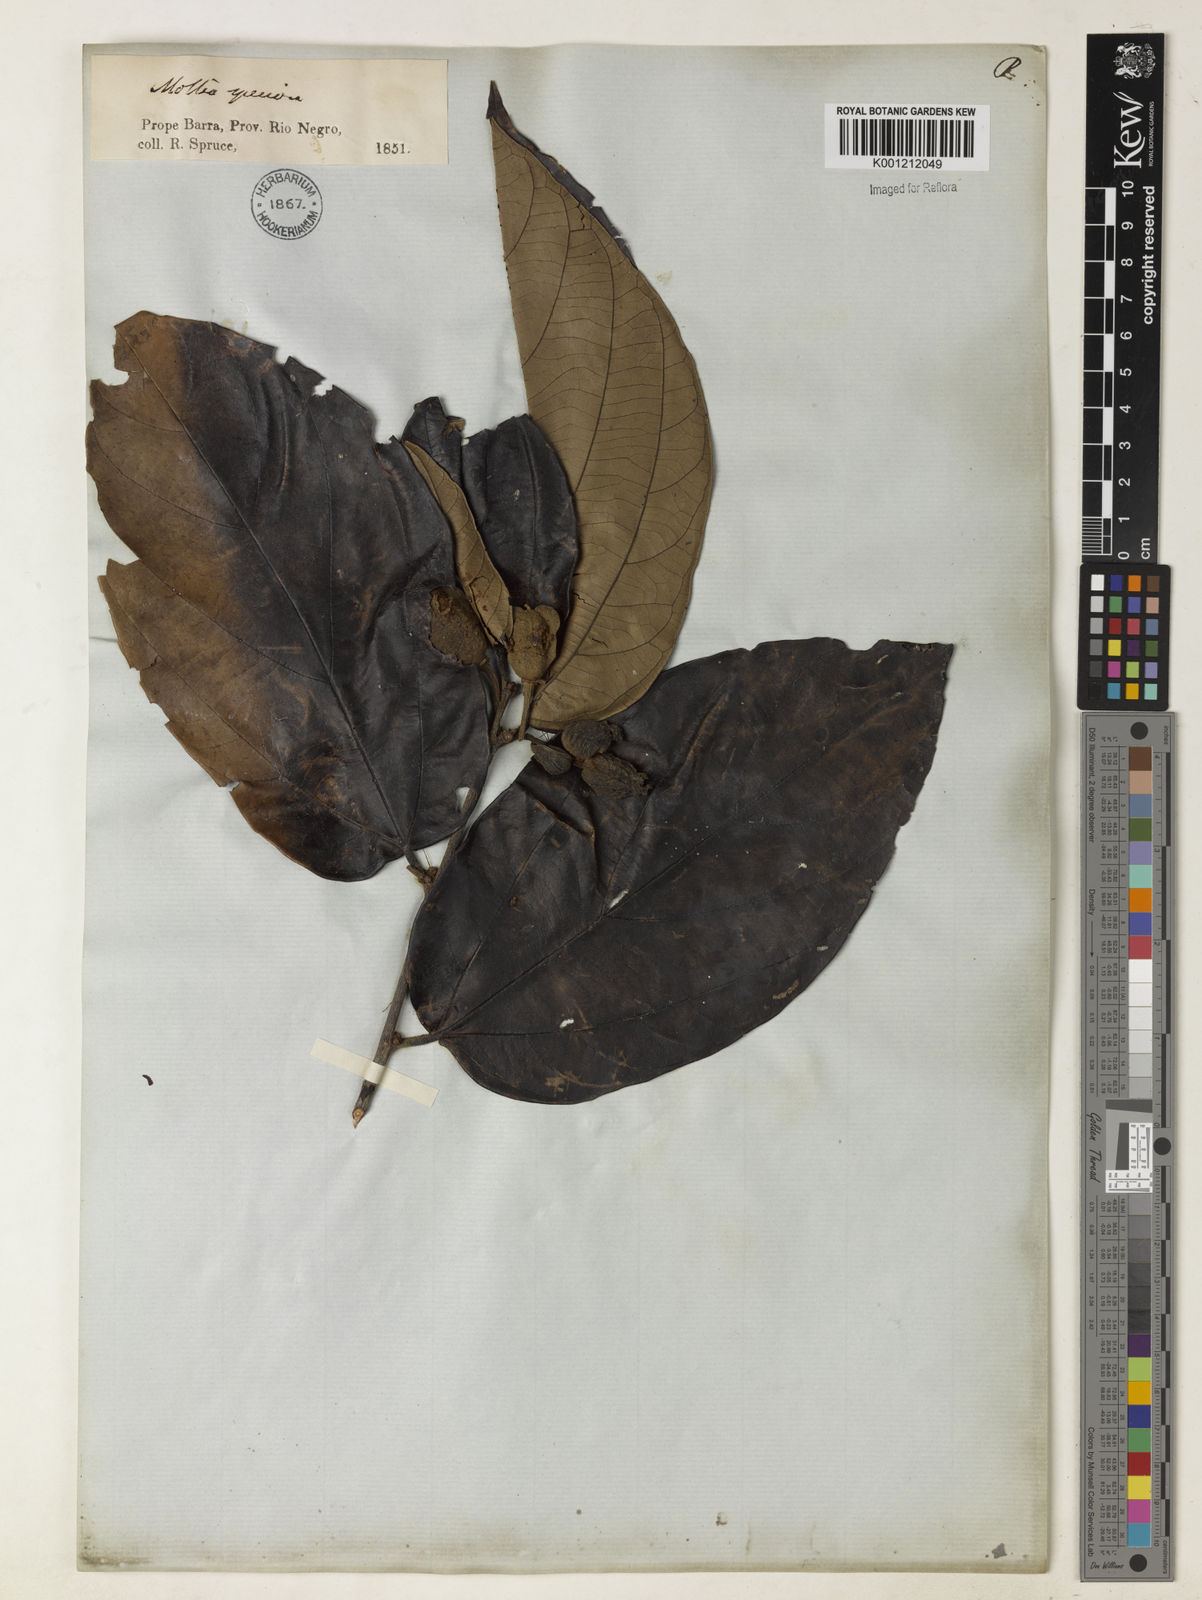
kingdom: Plantae
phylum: Tracheophyta
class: Magnoliopsida
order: Malvales
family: Malvaceae
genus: Mollia
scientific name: Mollia speciosa
